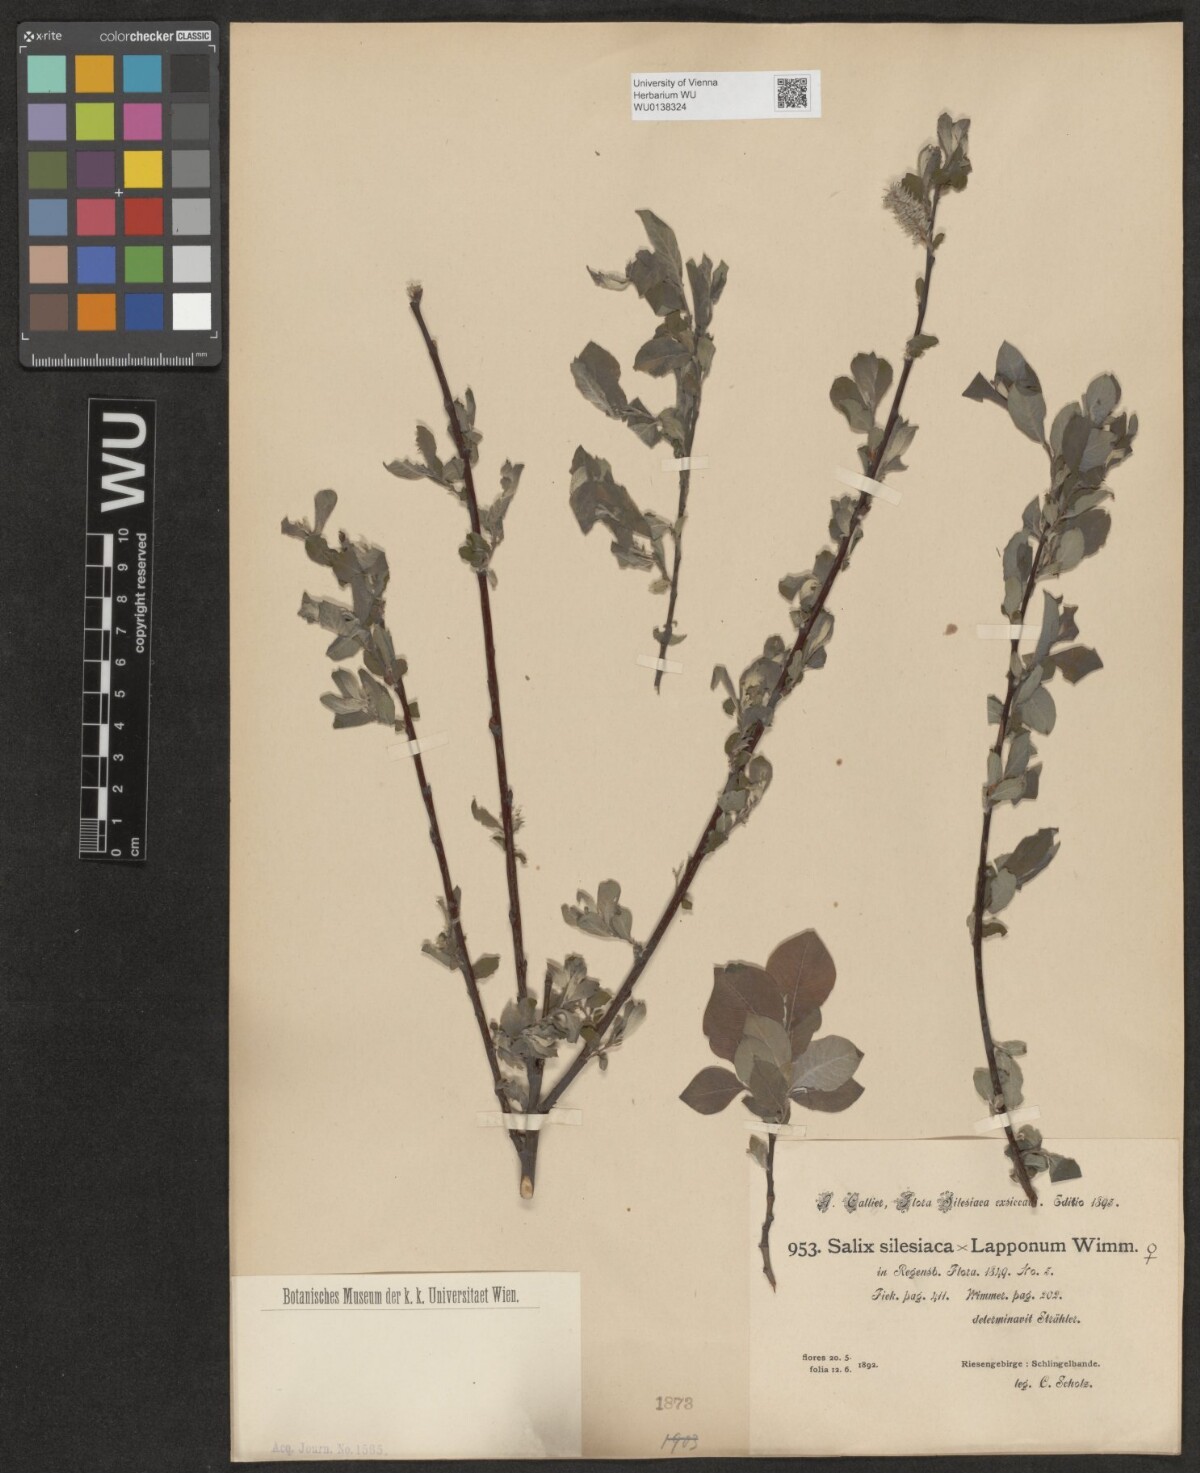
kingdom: Plantae
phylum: Tracheophyta
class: Magnoliopsida
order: Malpighiales
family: Salicaceae
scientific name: Salicaceae
